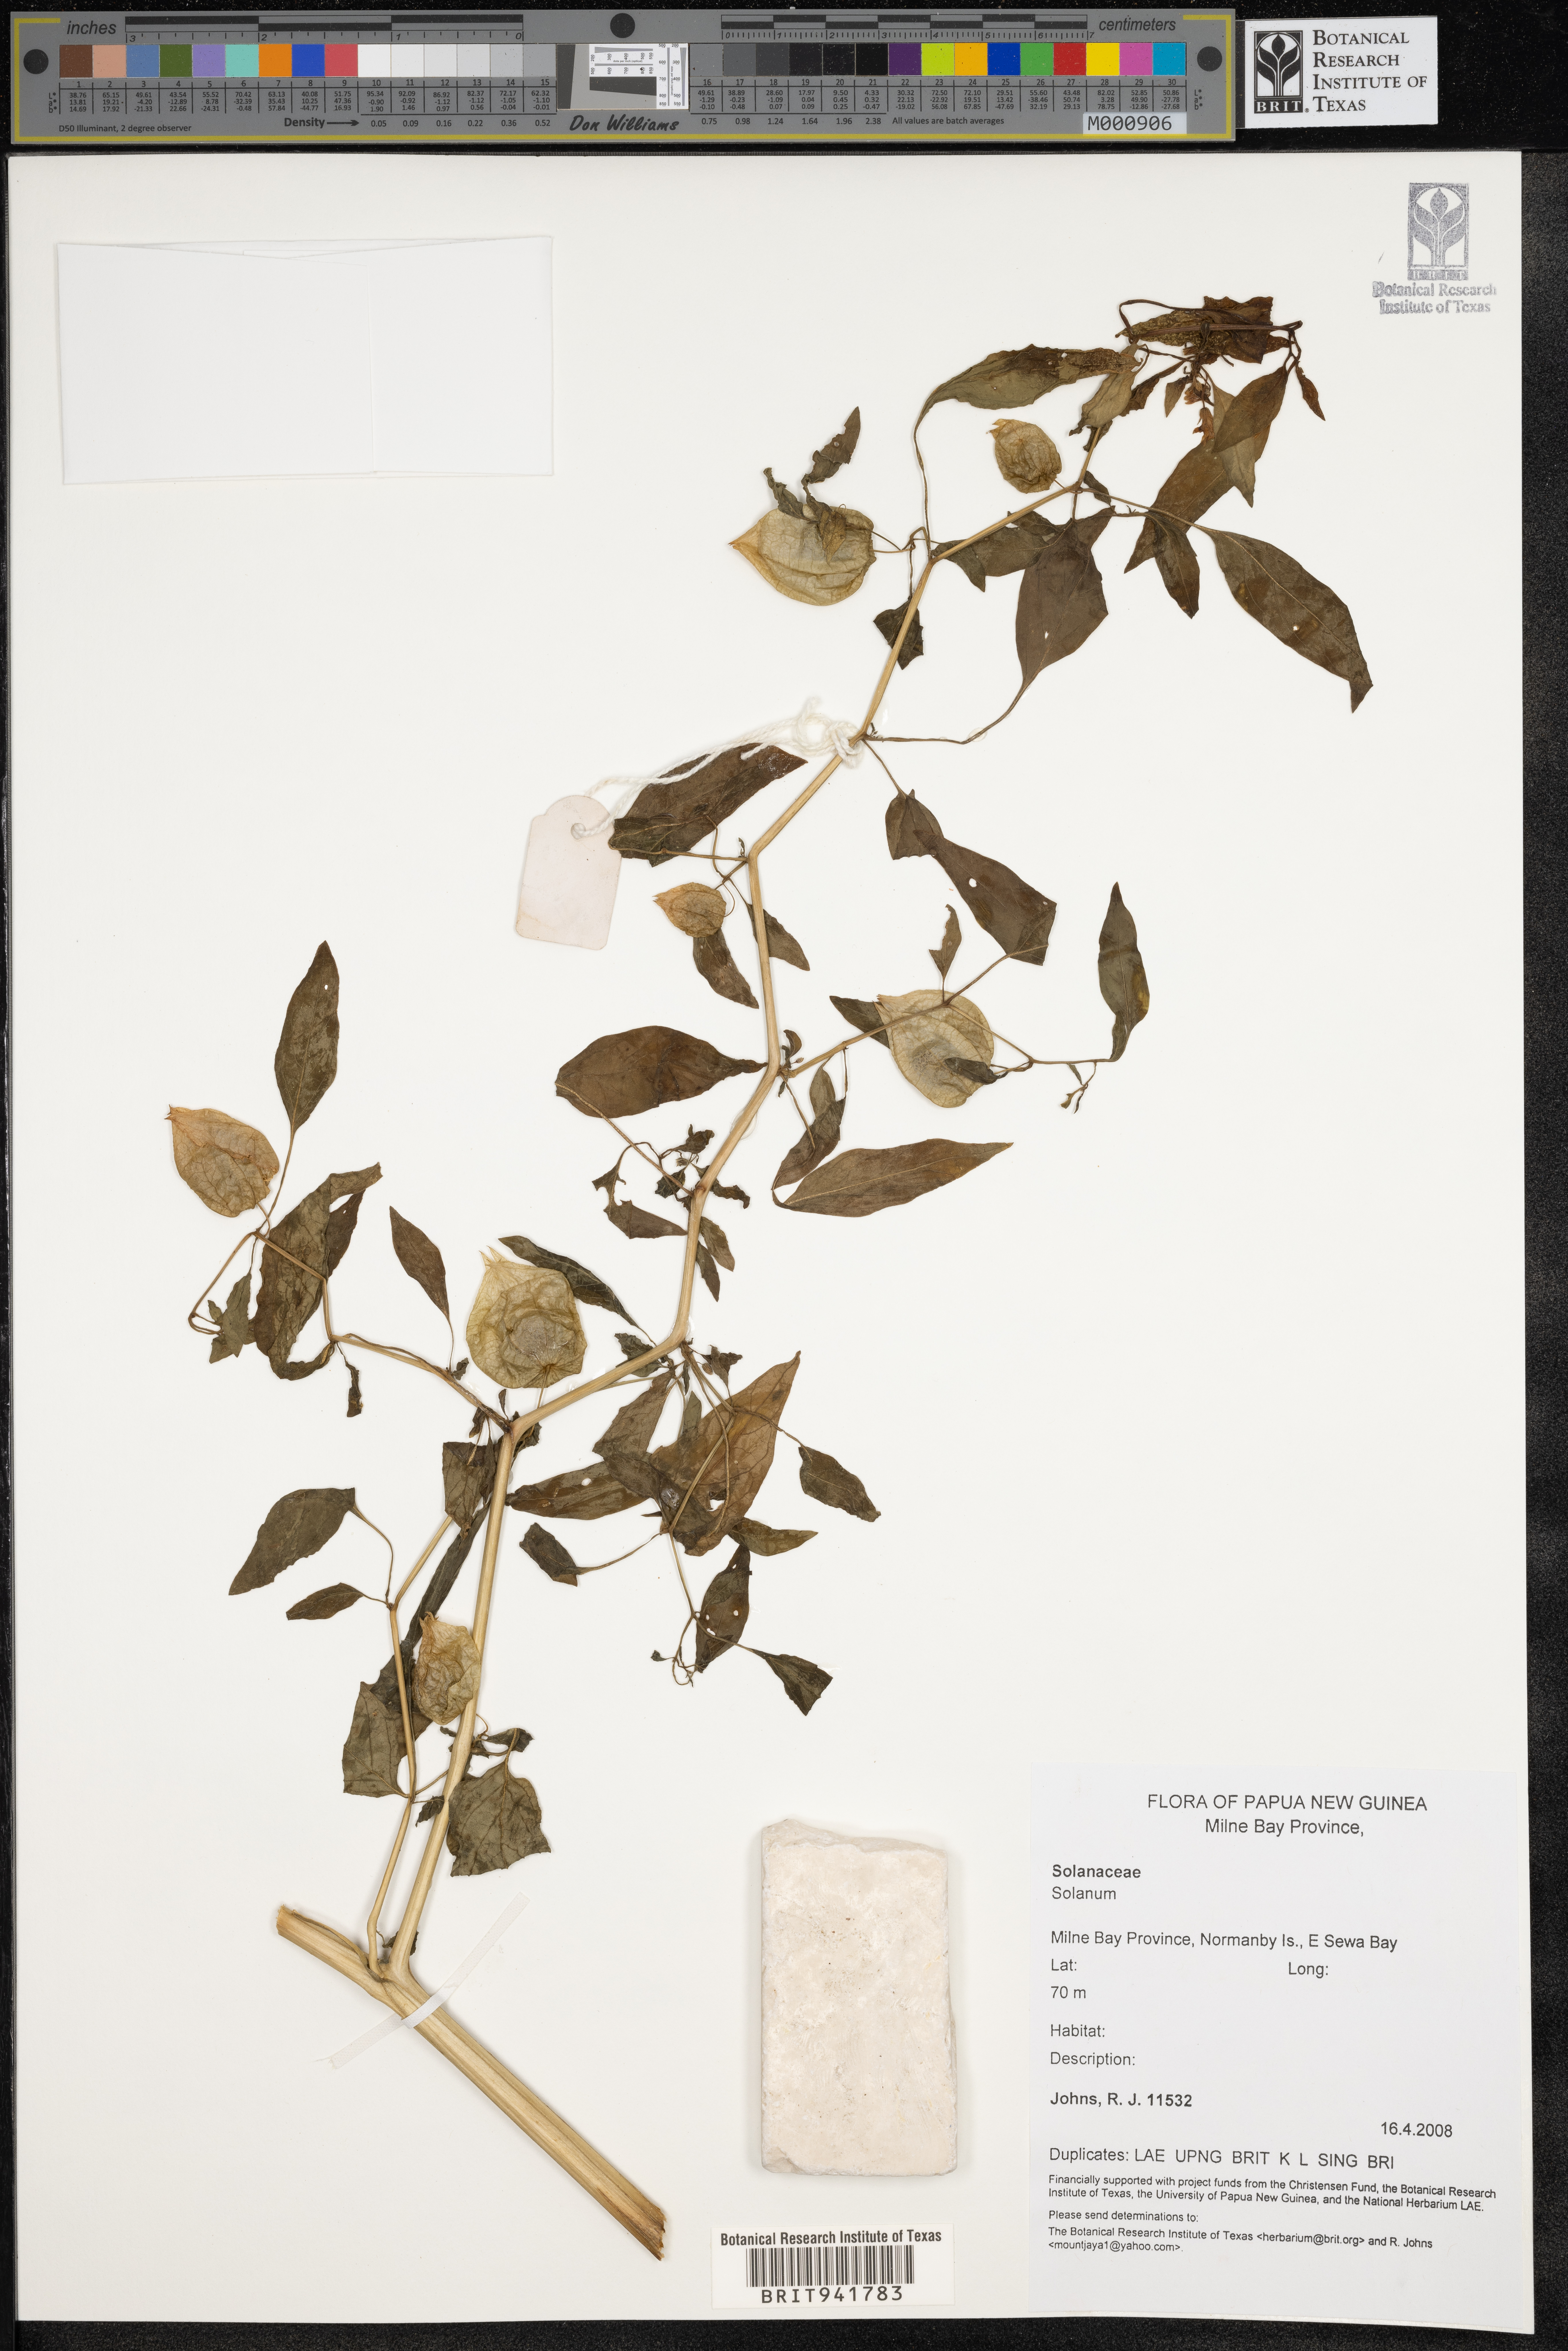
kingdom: Plantae
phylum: Tracheophyta
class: Magnoliopsida
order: Solanales
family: Solanaceae
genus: Solanum
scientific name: Solanum
